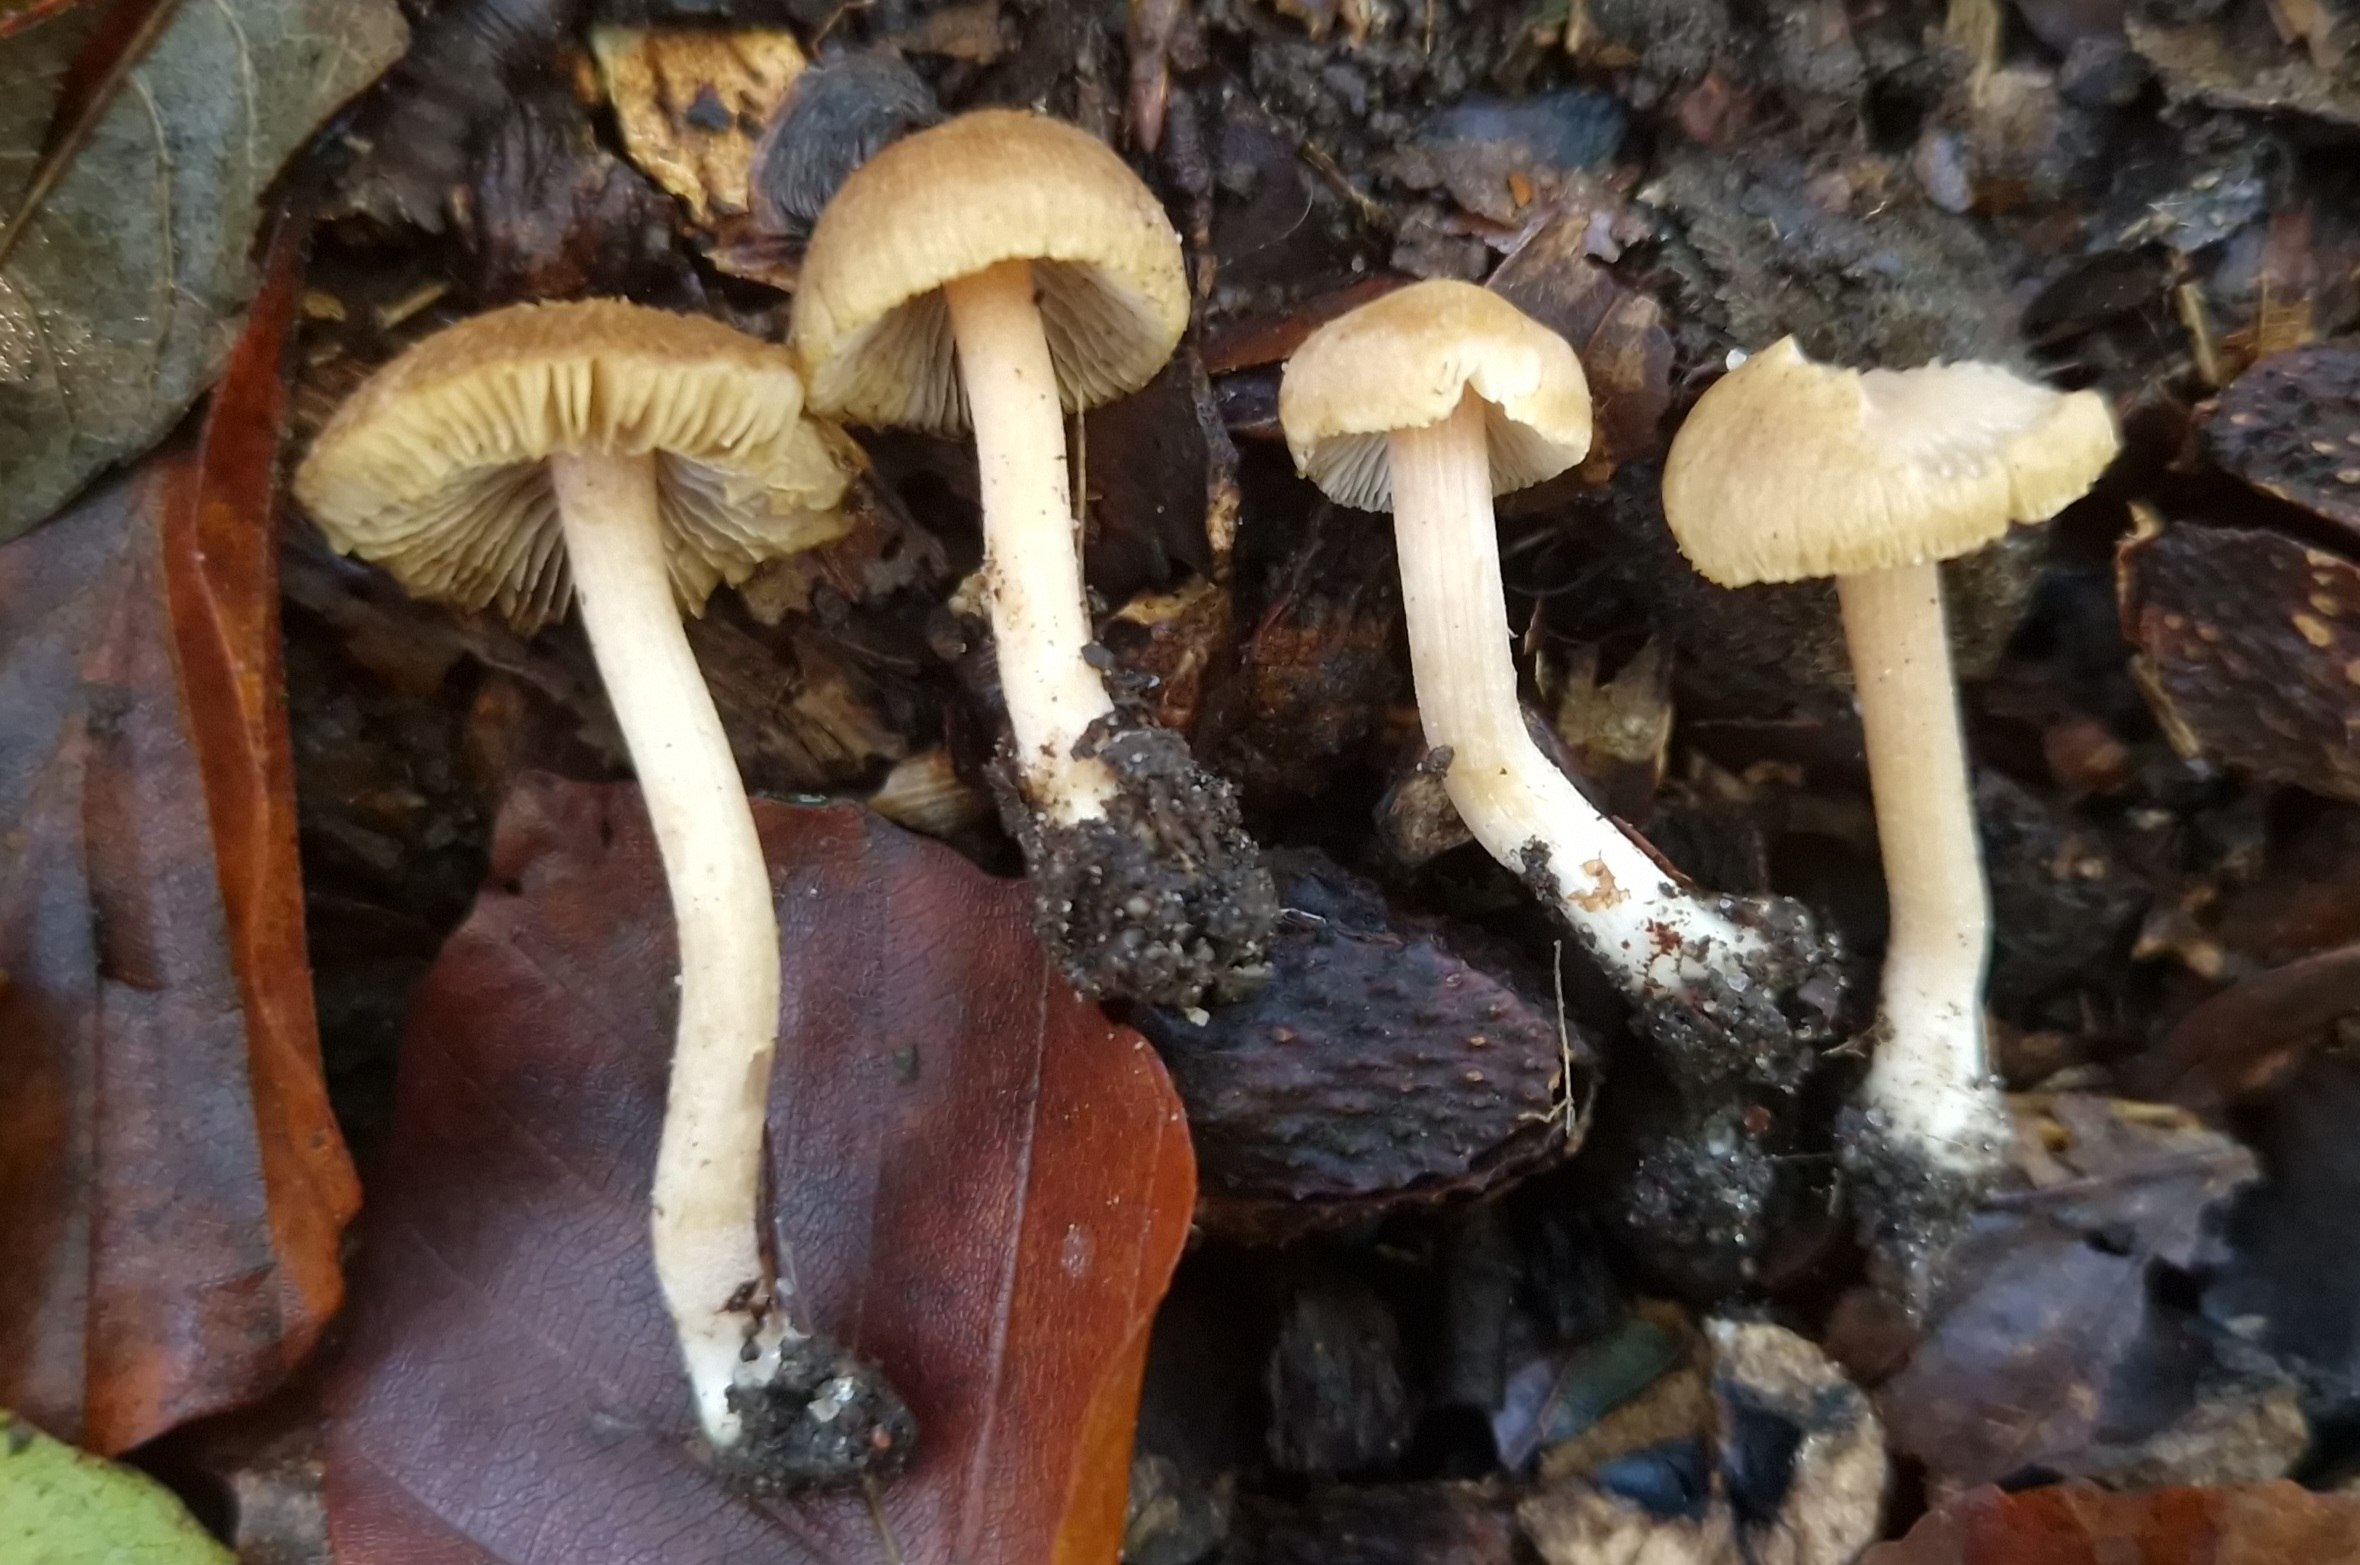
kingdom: Fungi
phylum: Basidiomycota
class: Agaricomycetes
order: Agaricales
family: Inocybaceae
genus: Inocybe
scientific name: Inocybe mycenoides
